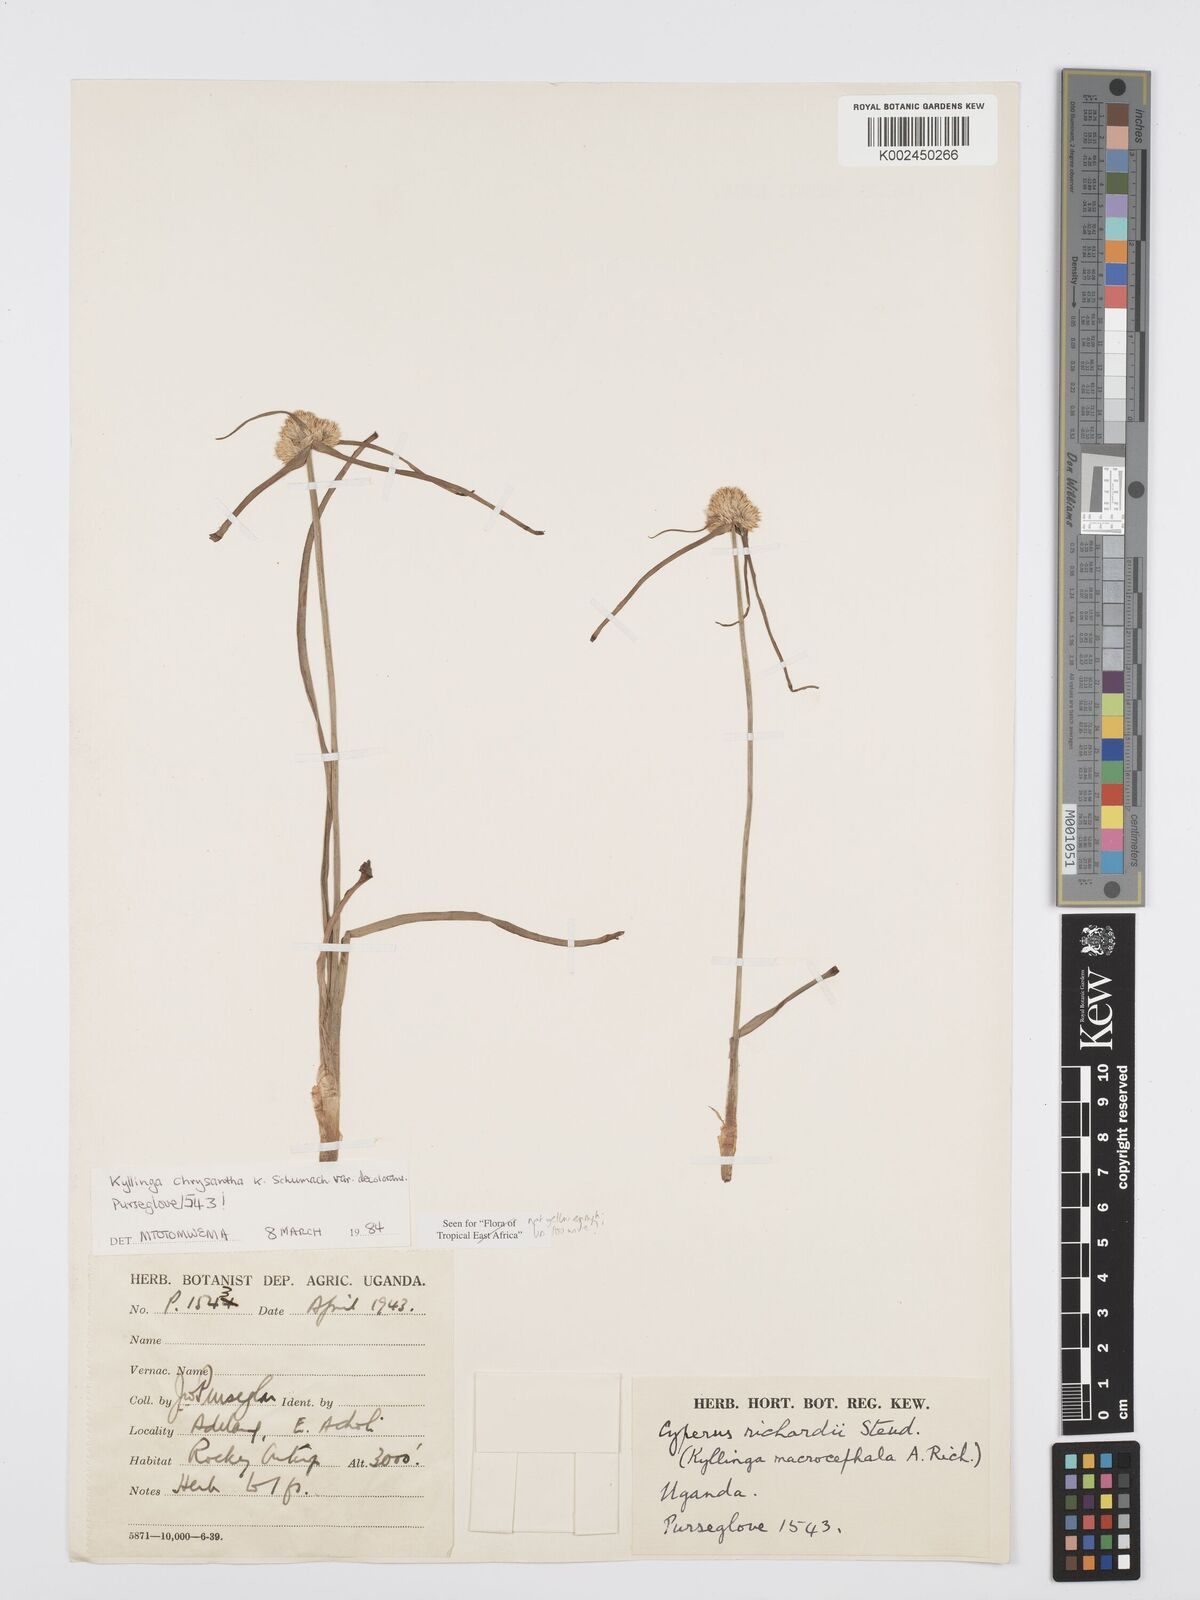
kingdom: Plantae
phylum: Tracheophyta
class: Liliopsida
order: Poales
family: Cyperaceae
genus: Cyperus
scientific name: Cyperus
